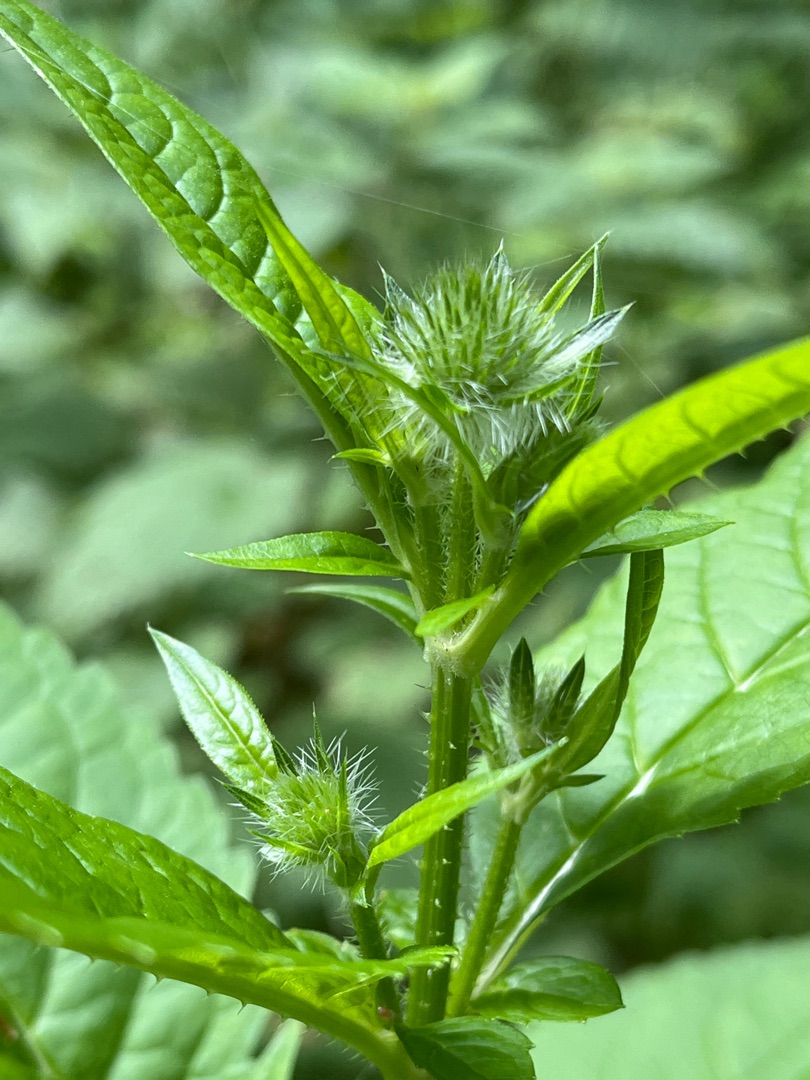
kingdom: Plantae
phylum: Tracheophyta
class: Magnoliopsida
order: Dipsacales
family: Caprifoliaceae
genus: Dipsacus
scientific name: Dipsacus pilosus
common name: Håret kartebolle
